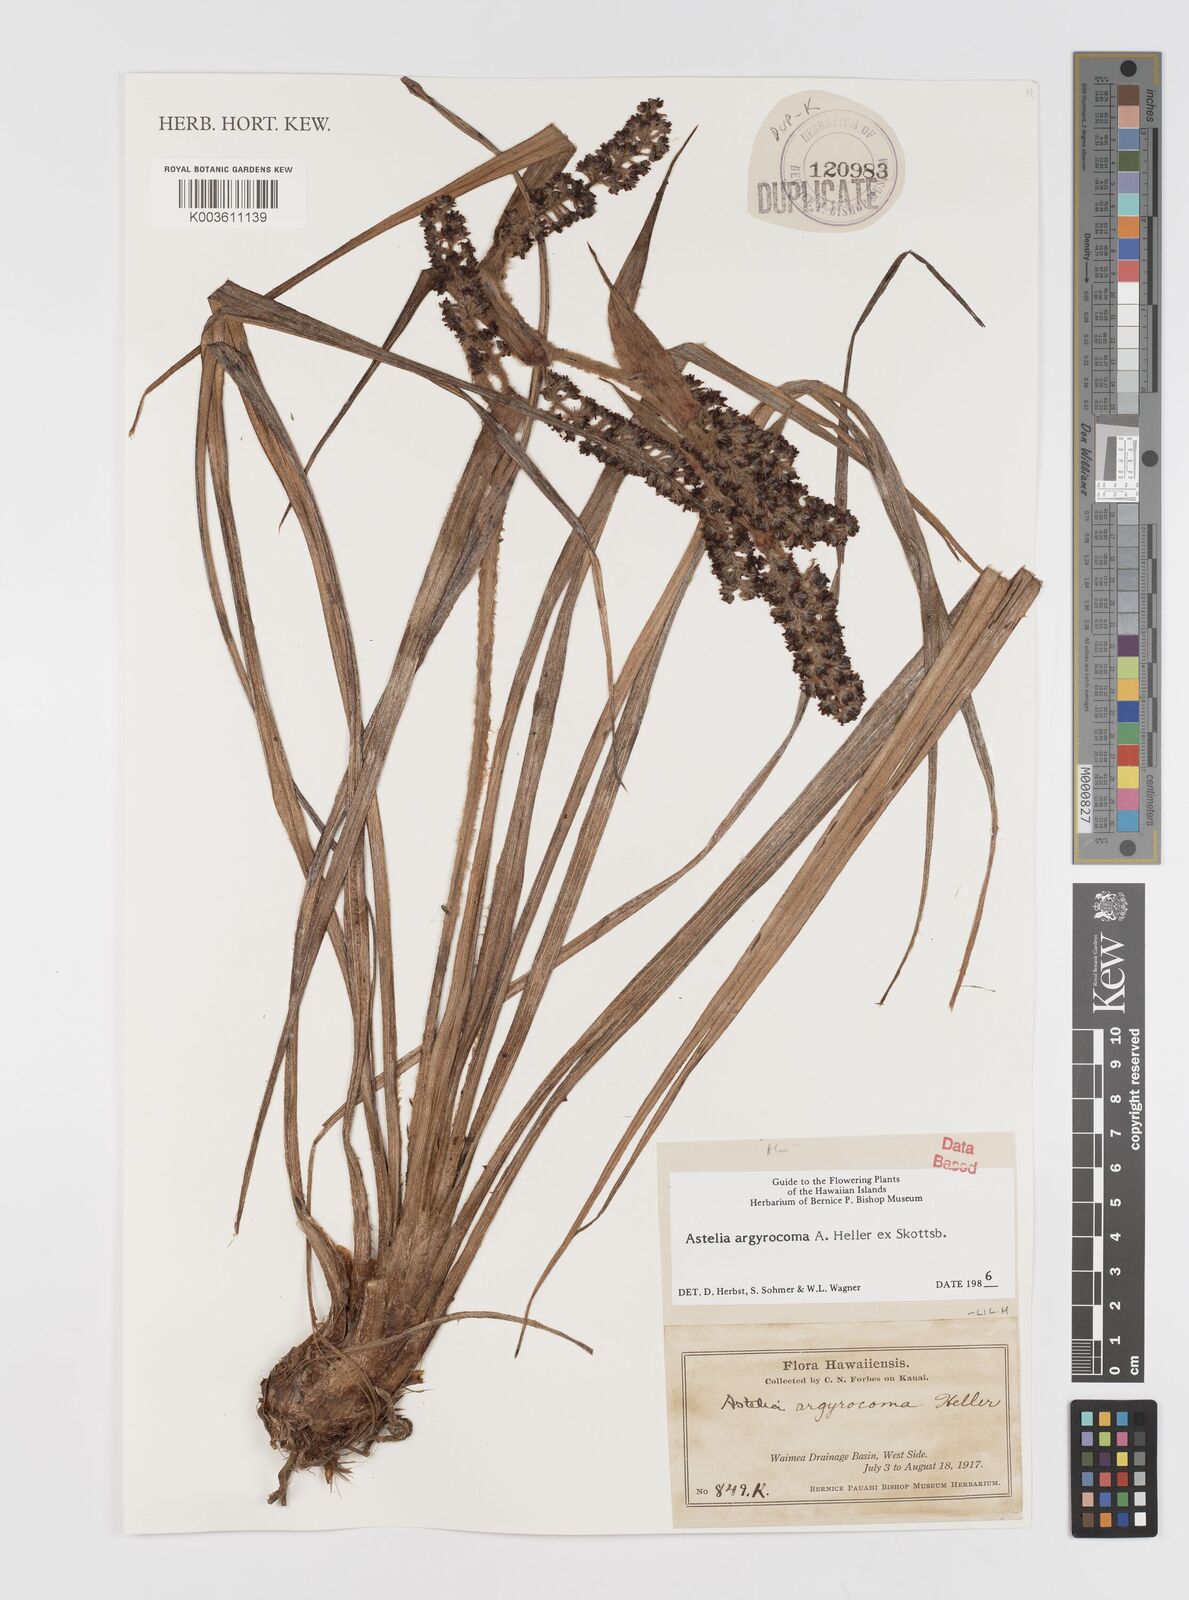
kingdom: Plantae
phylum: Tracheophyta
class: Liliopsida
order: Asparagales
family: Asteliaceae
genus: Astelia
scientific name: Astelia argyrocoma
